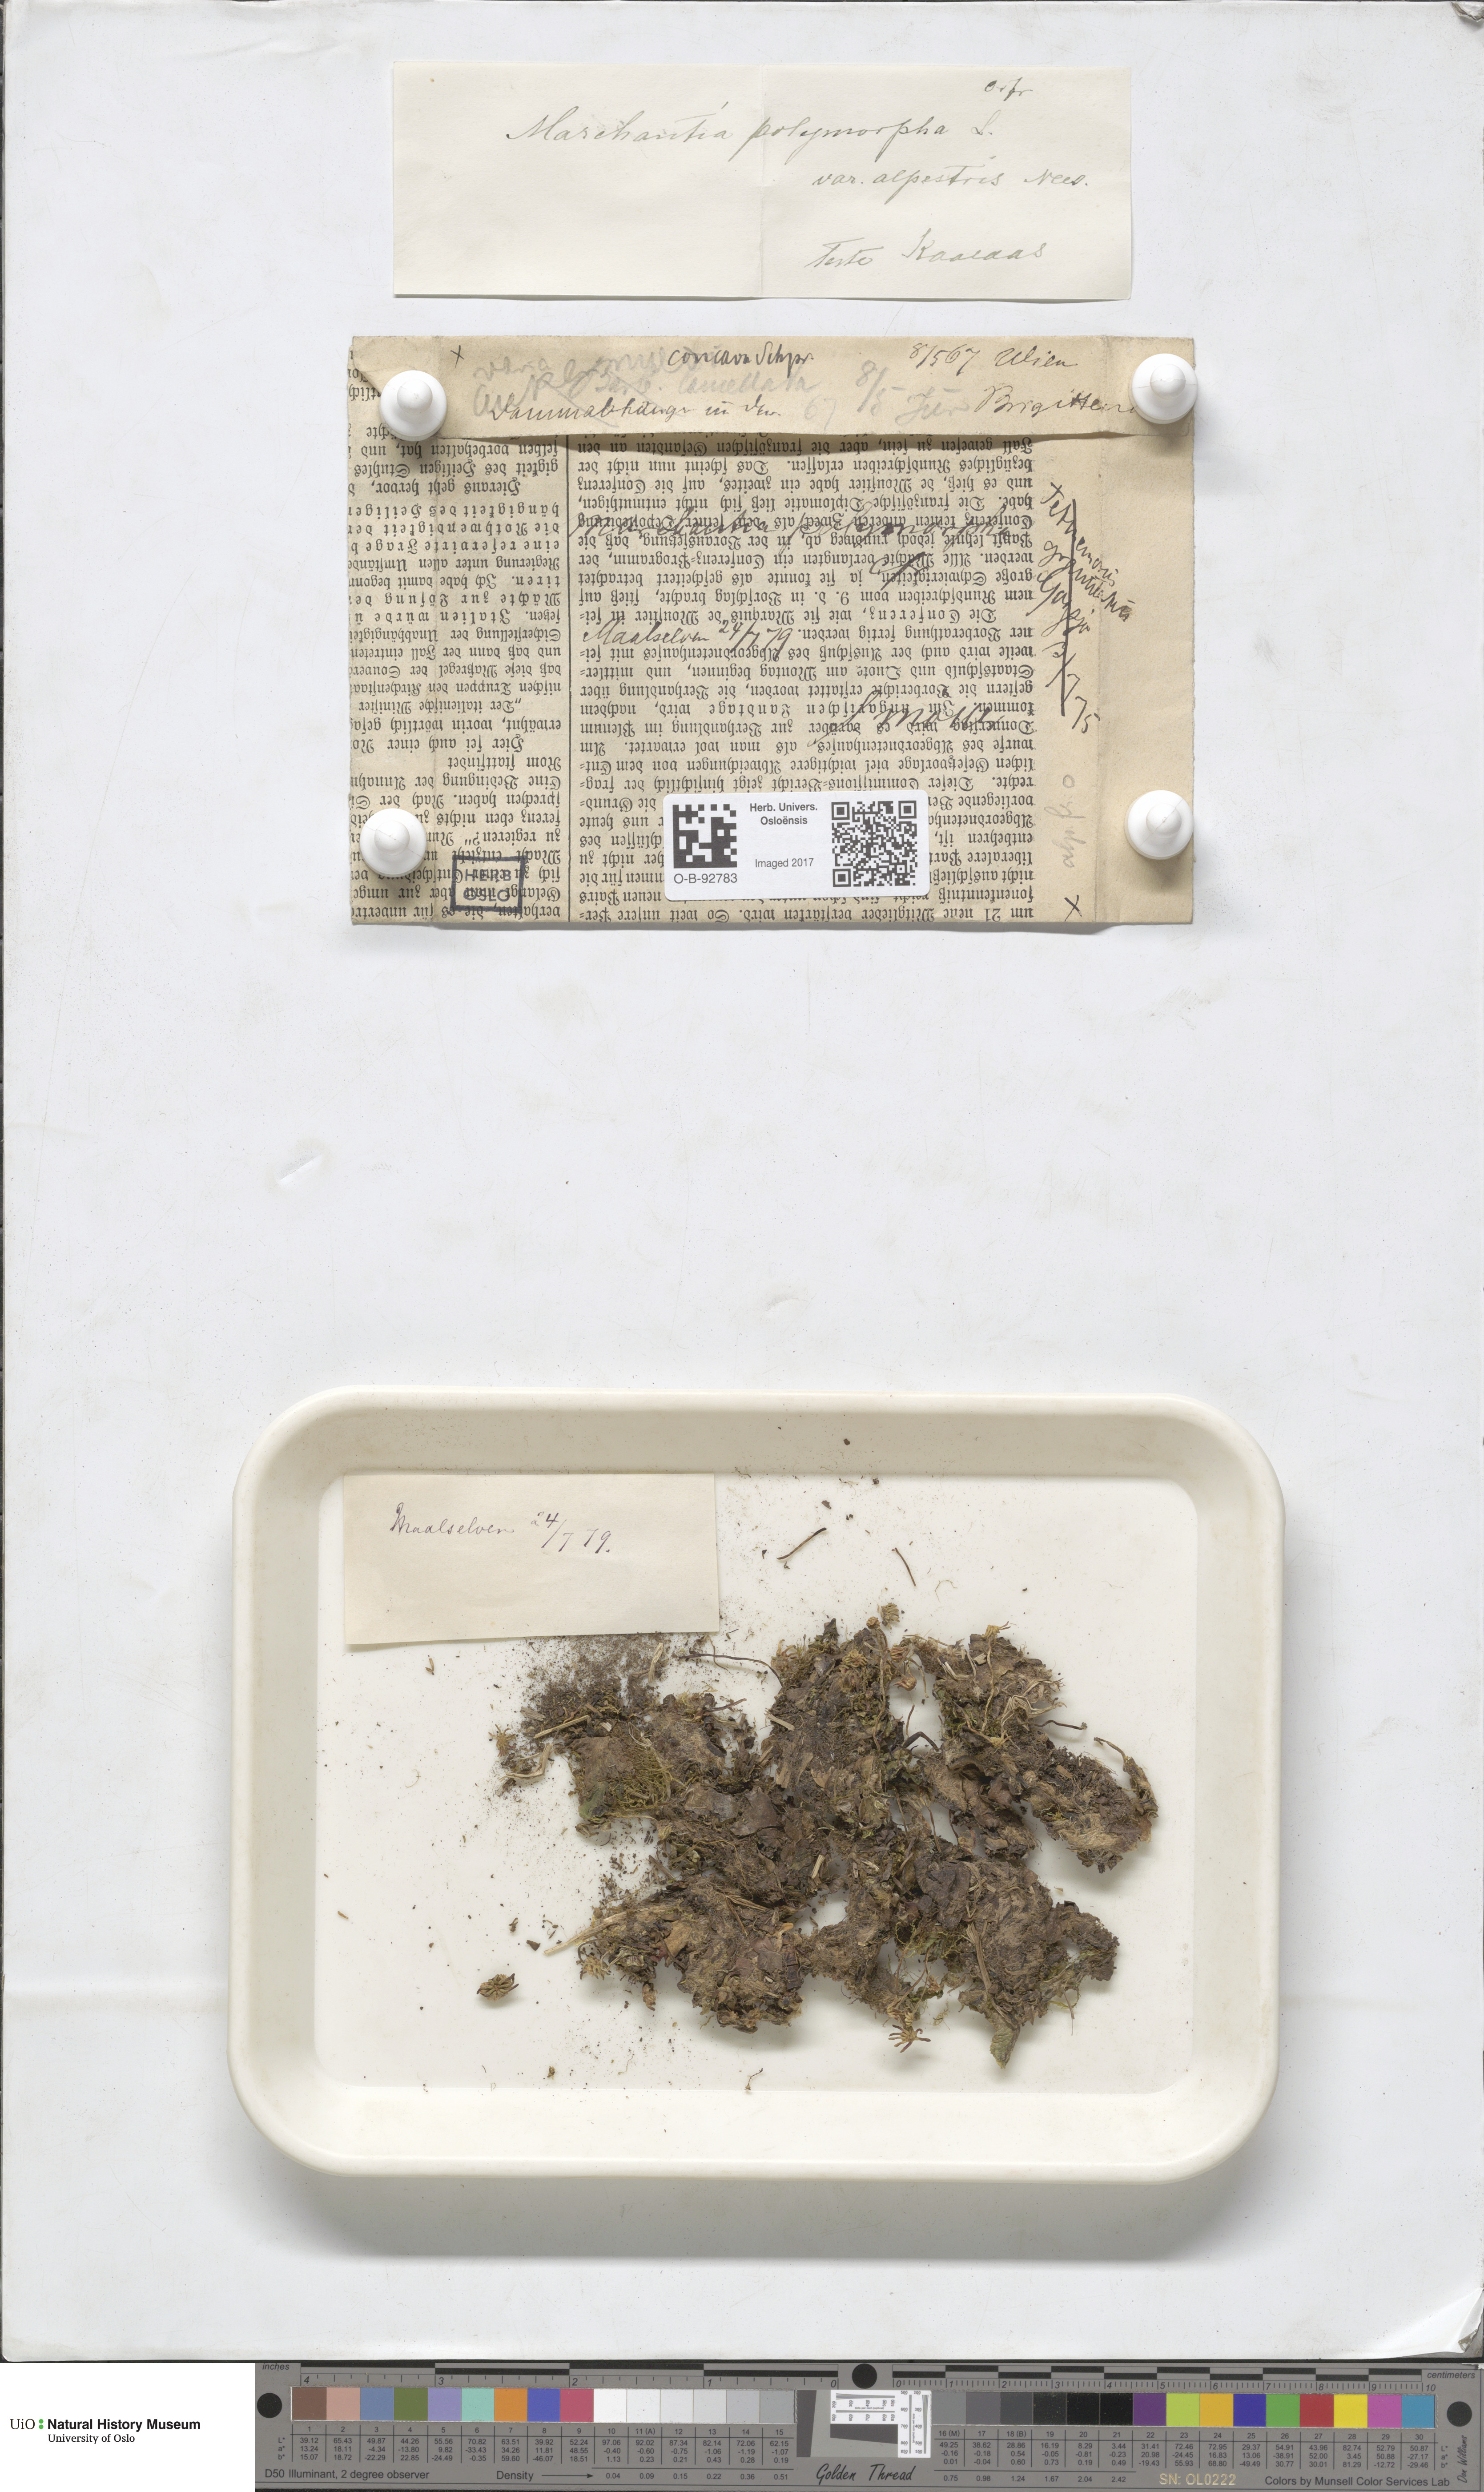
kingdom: Plantae
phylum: Marchantiophyta
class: Marchantiopsida
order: Marchantiales
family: Marchantiaceae
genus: Marchantia
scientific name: Marchantia polymorpha
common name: Common liverwort
